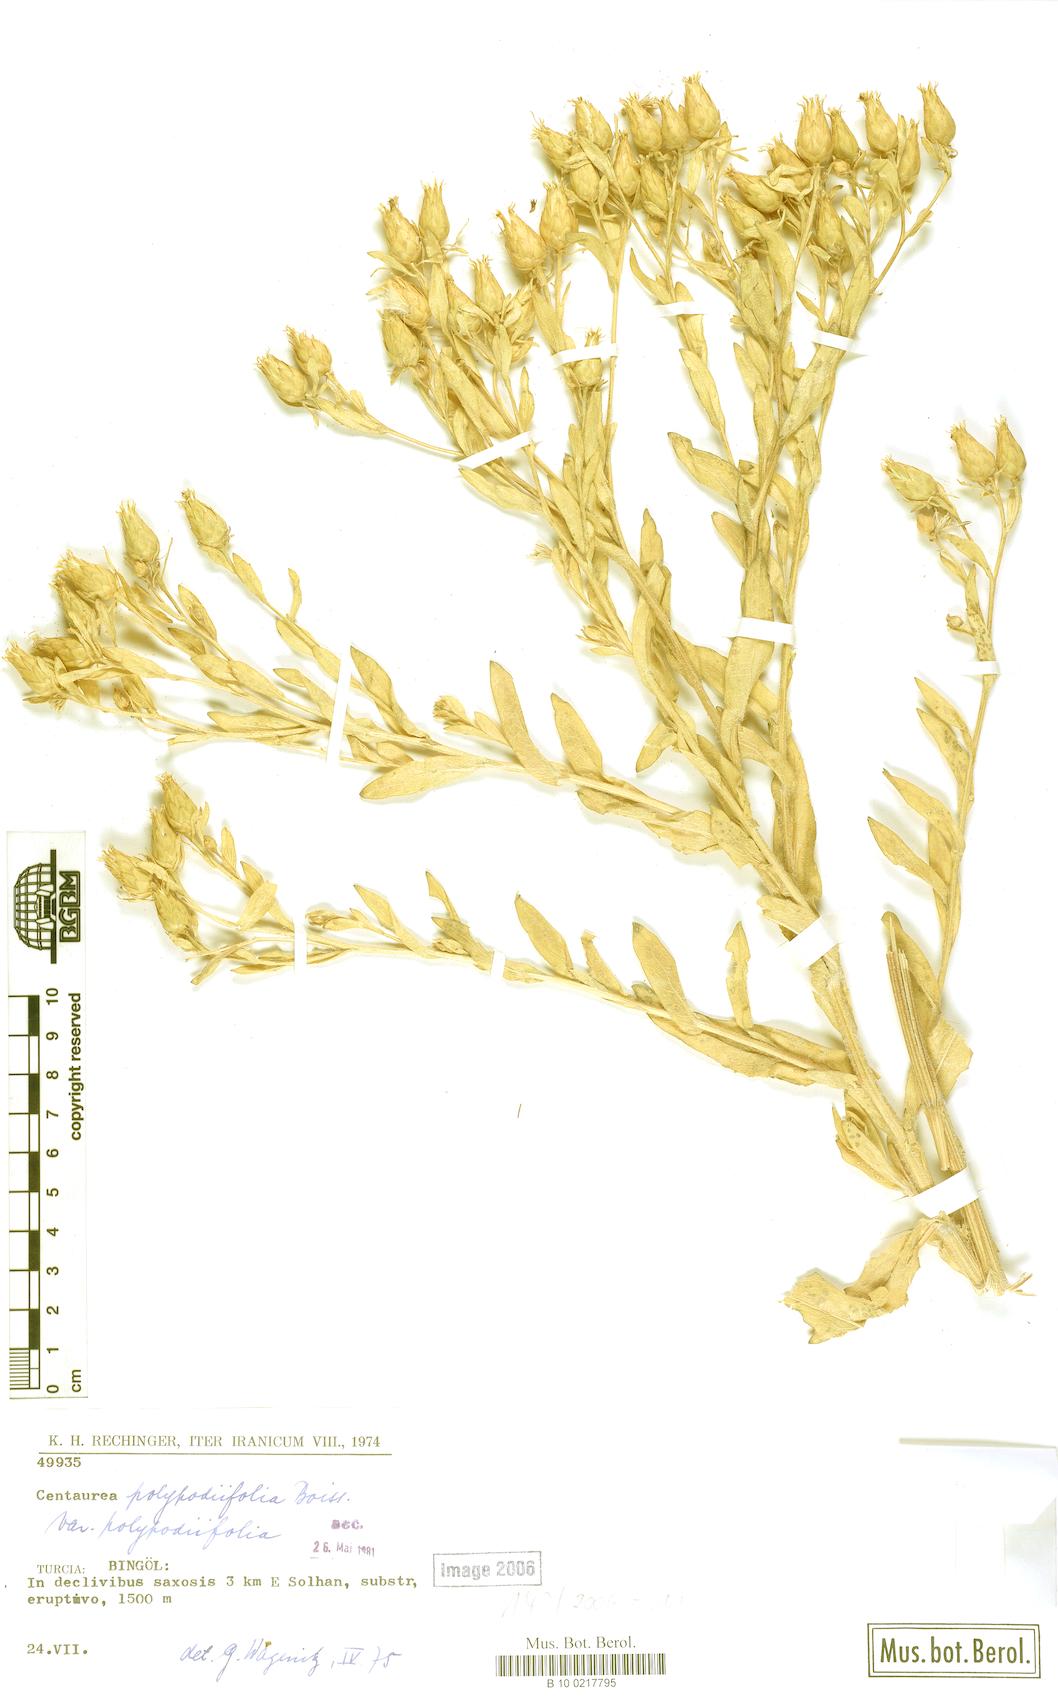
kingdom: Plantae
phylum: Tracheophyta
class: Magnoliopsida
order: Asterales
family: Asteraceae
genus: Centaurea
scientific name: Centaurea polypodiifolia
